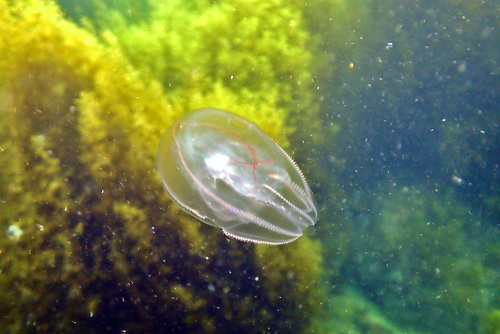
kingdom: Animalia
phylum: Arthropoda
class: Insecta
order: Hemiptera
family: Cicadellidae
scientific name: Cicadellidae
